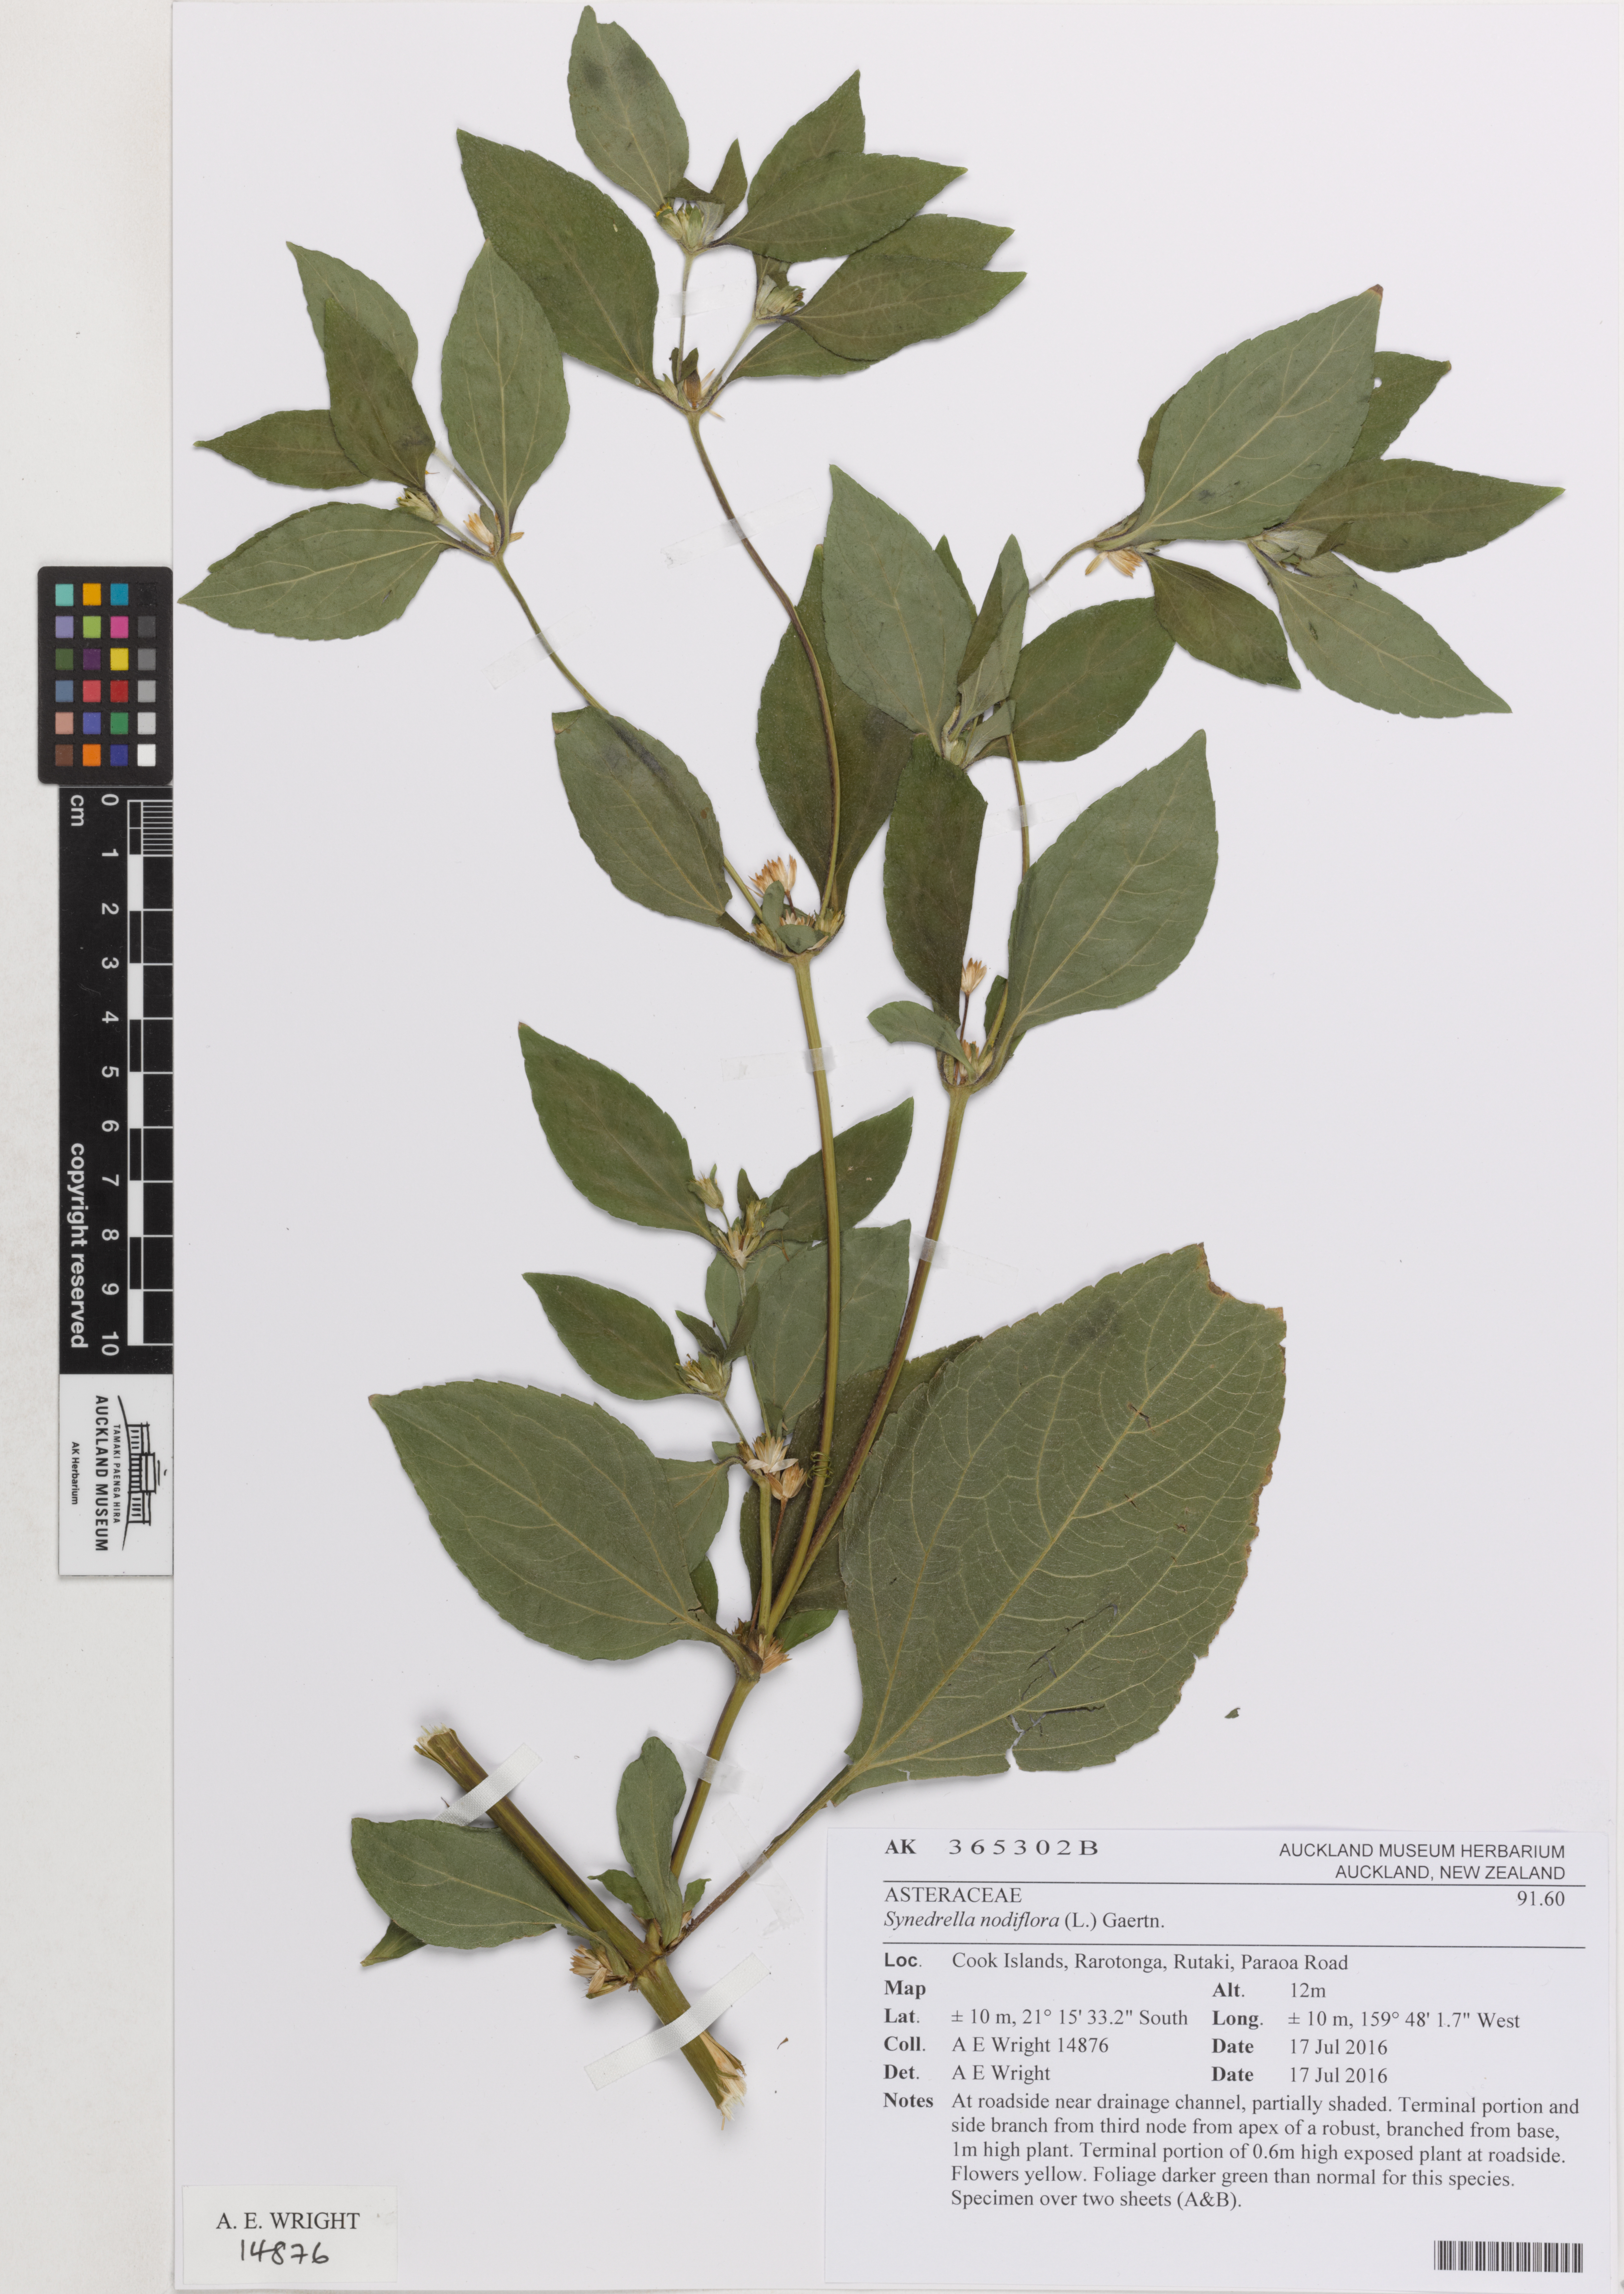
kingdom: Plantae
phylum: Tracheophyta
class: Magnoliopsida
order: Asterales
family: Asteraceae
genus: Synedrella
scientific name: Synedrella nodiflora
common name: Nodeweed
